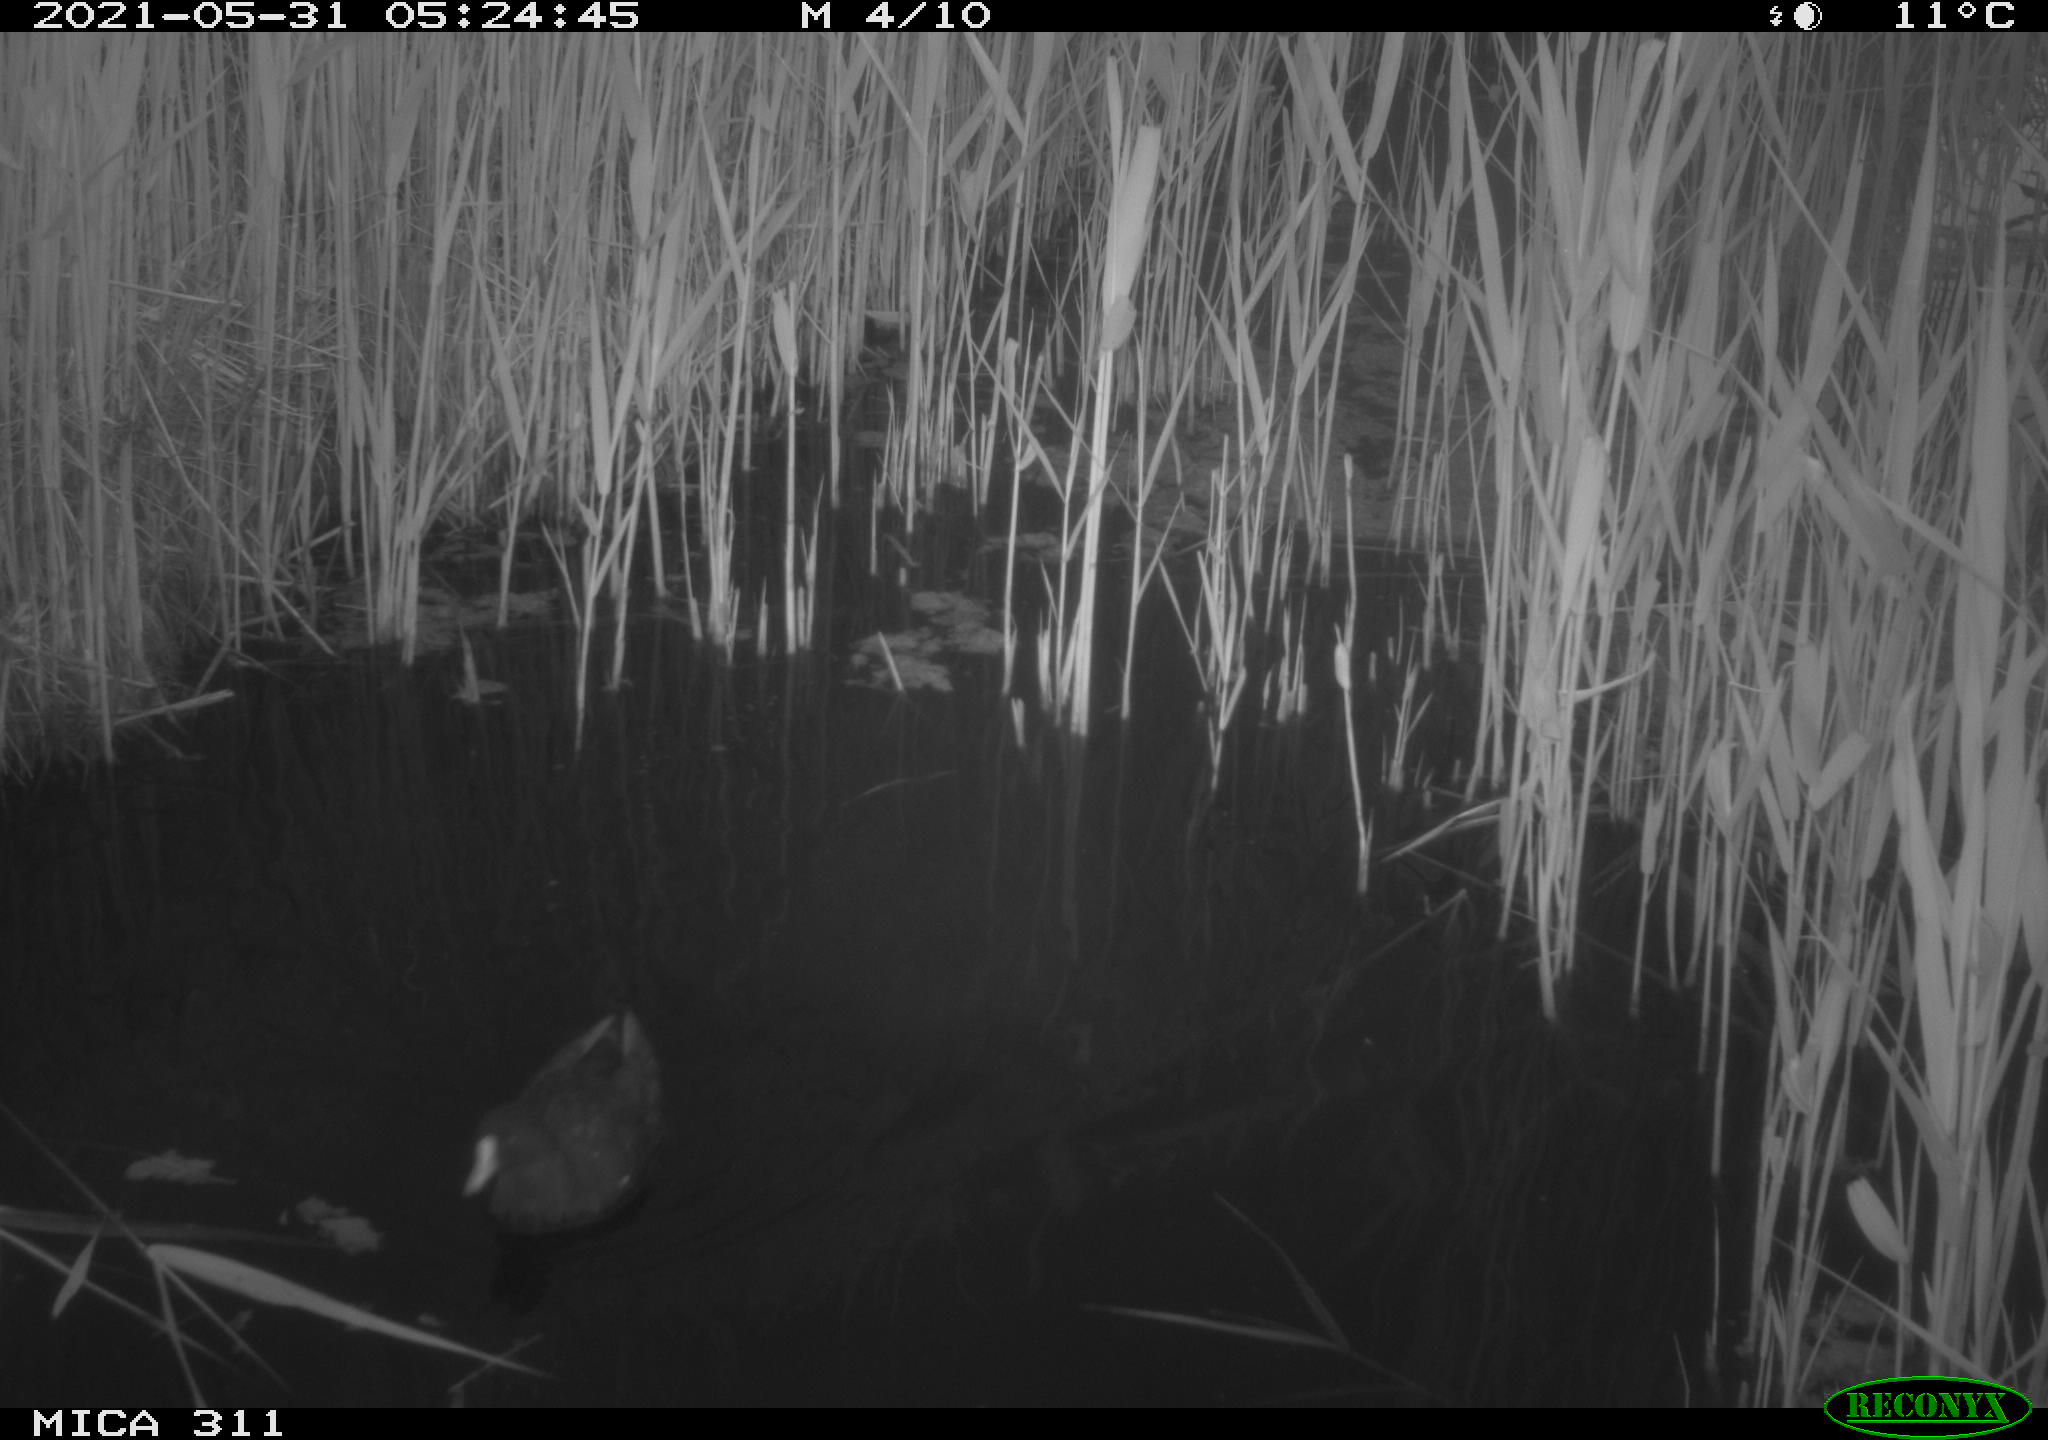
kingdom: Animalia
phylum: Chordata
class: Aves
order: Gruiformes
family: Rallidae
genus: Gallinula
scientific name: Gallinula chloropus
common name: Common moorhen
